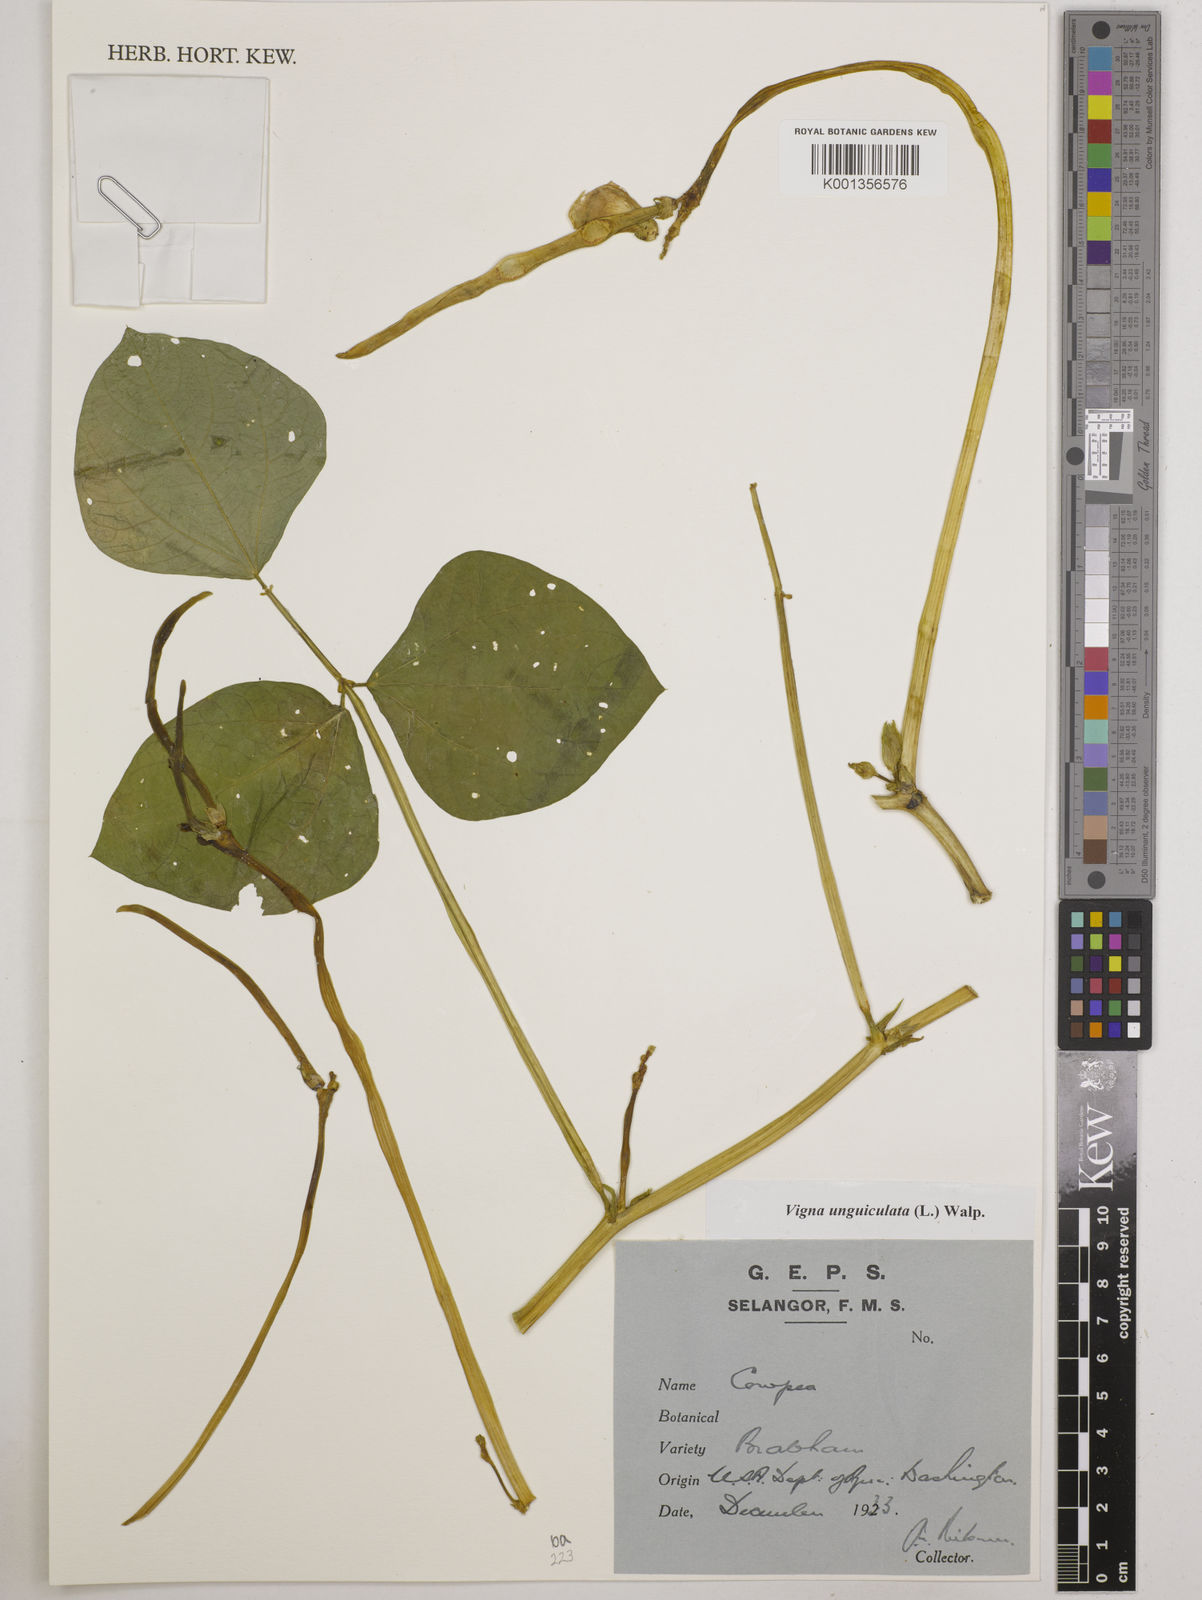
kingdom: Plantae
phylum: Tracheophyta
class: Magnoliopsida
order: Fabales
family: Fabaceae
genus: Vigna
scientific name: Vigna unguiculata
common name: Cowpea
